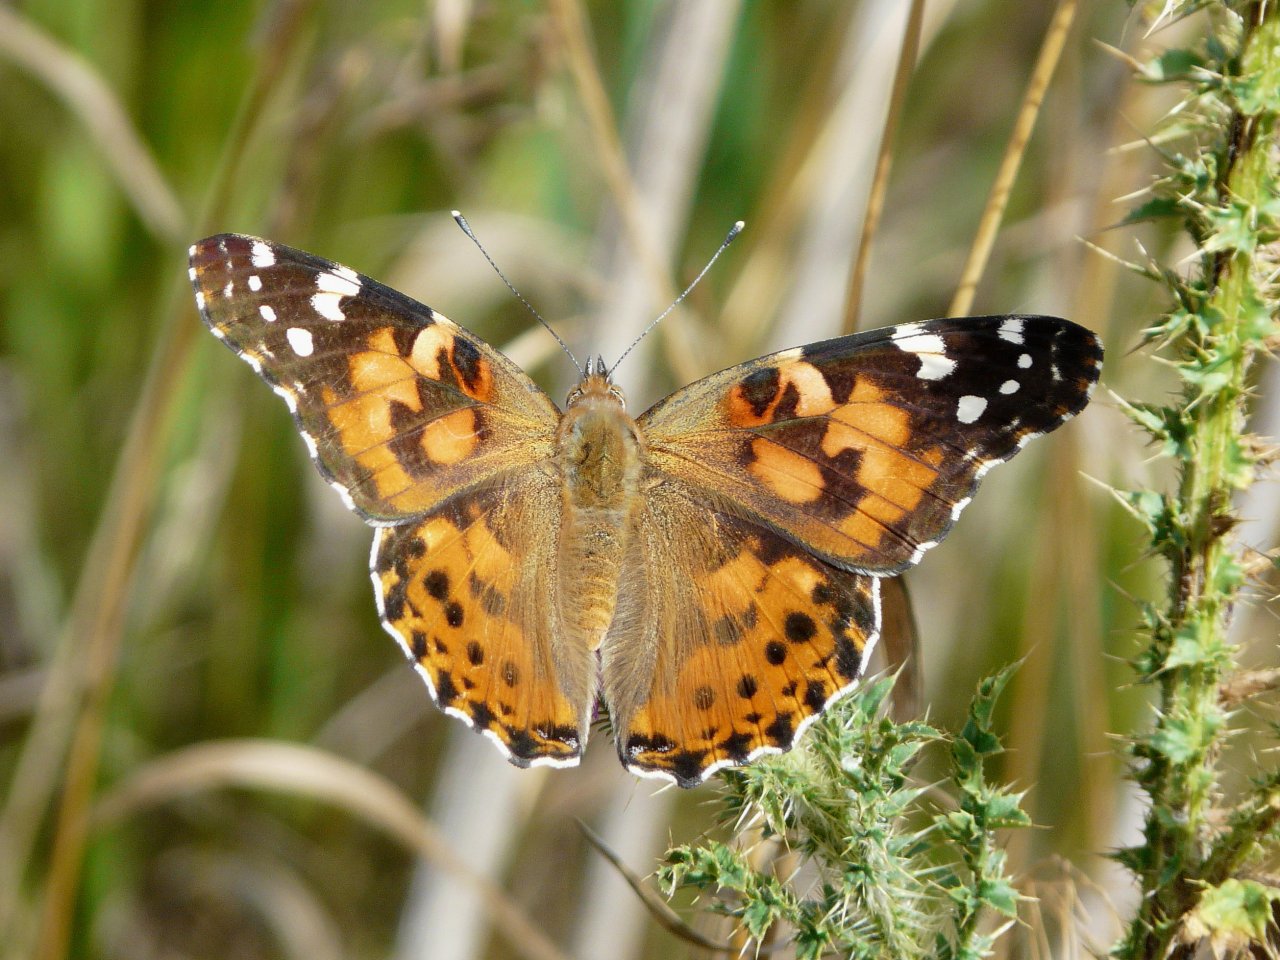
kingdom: Animalia
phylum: Arthropoda
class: Insecta
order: Lepidoptera
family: Nymphalidae
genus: Vanessa
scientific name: Vanessa cardui
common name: Painted Lady
